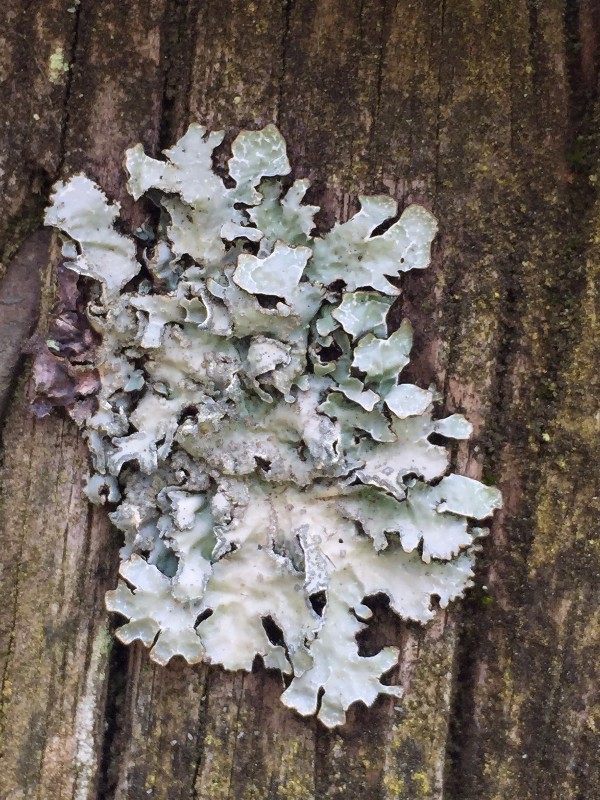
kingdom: Fungi
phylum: Ascomycota
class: Lecanoromycetes
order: Lecanorales
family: Parmeliaceae
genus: Parmelia
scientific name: Parmelia sulcata
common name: rynket skållav
